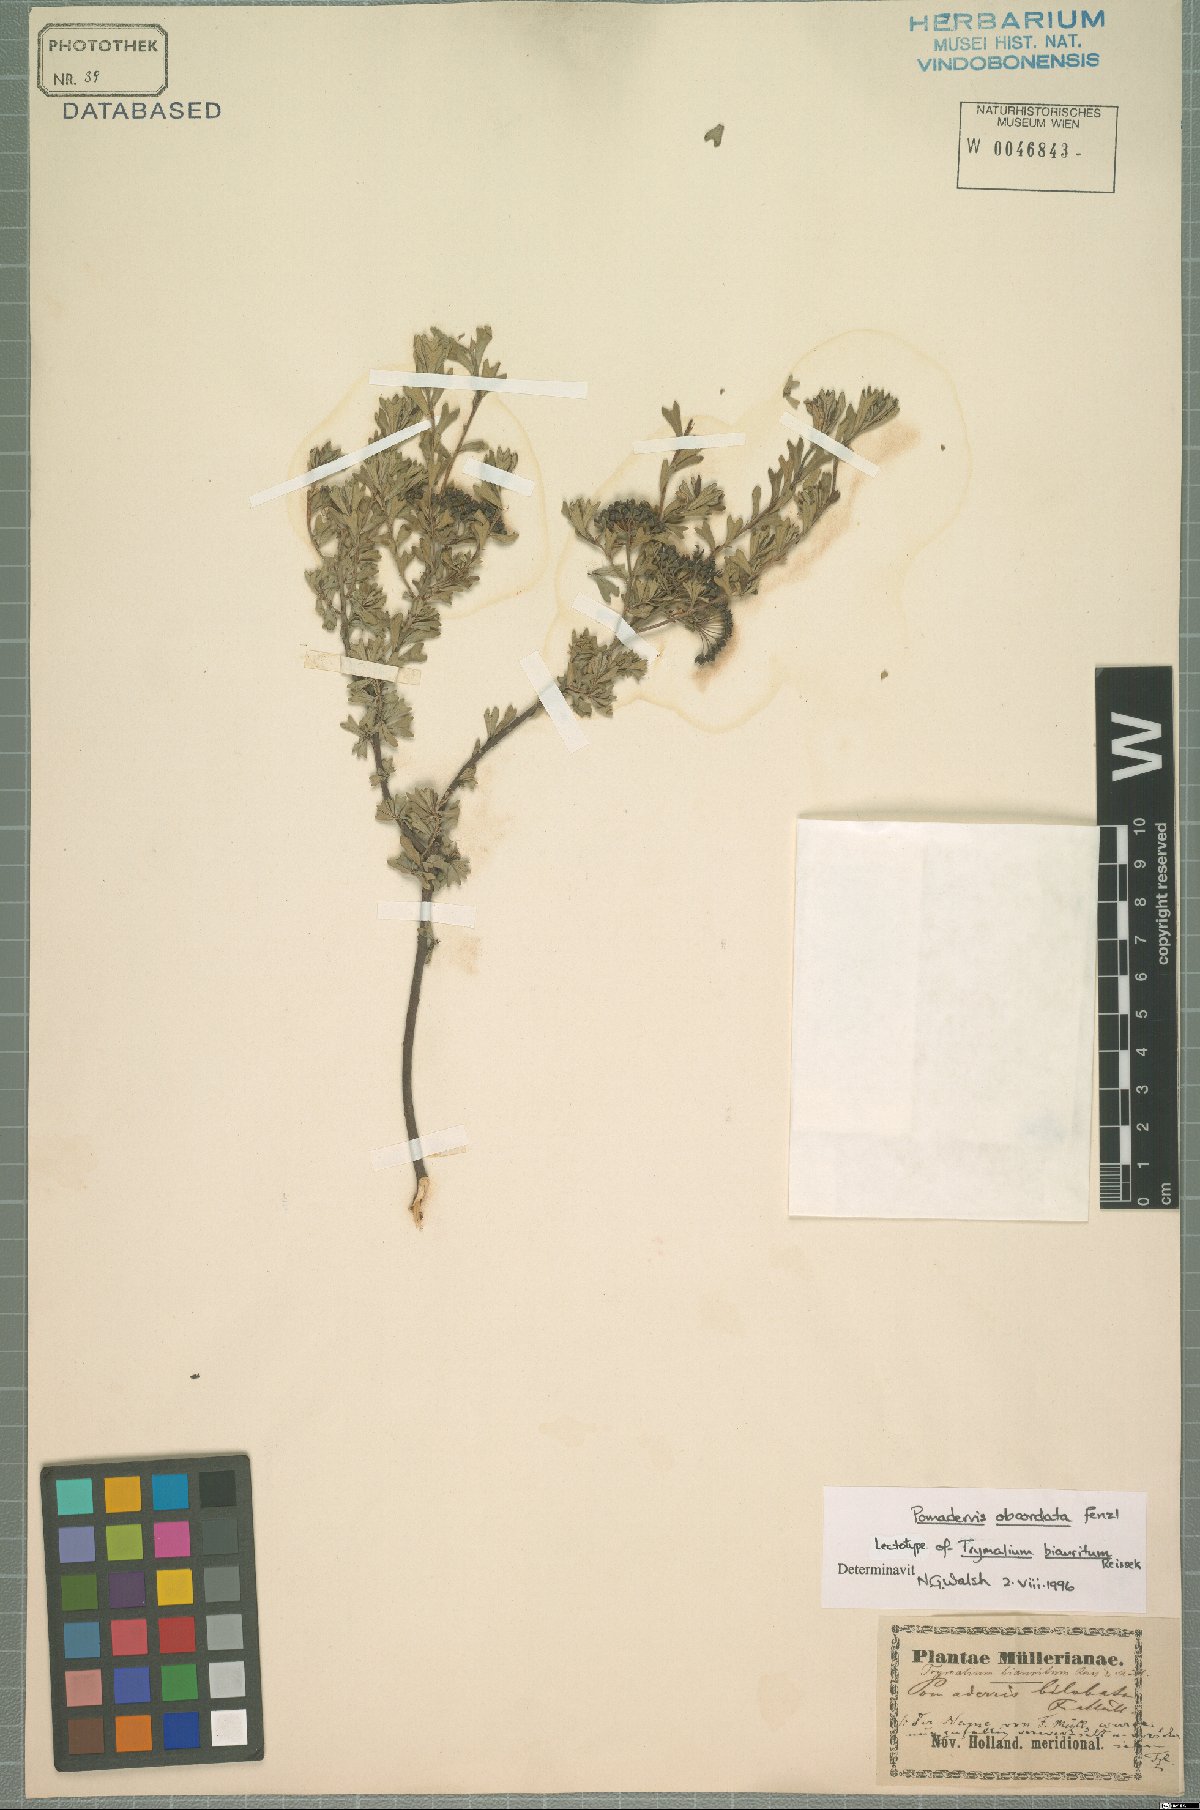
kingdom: Plantae
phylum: Tracheophyta
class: Magnoliopsida
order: Rosales
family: Rhamnaceae
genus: Pomaderris
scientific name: Pomaderris obcordata
